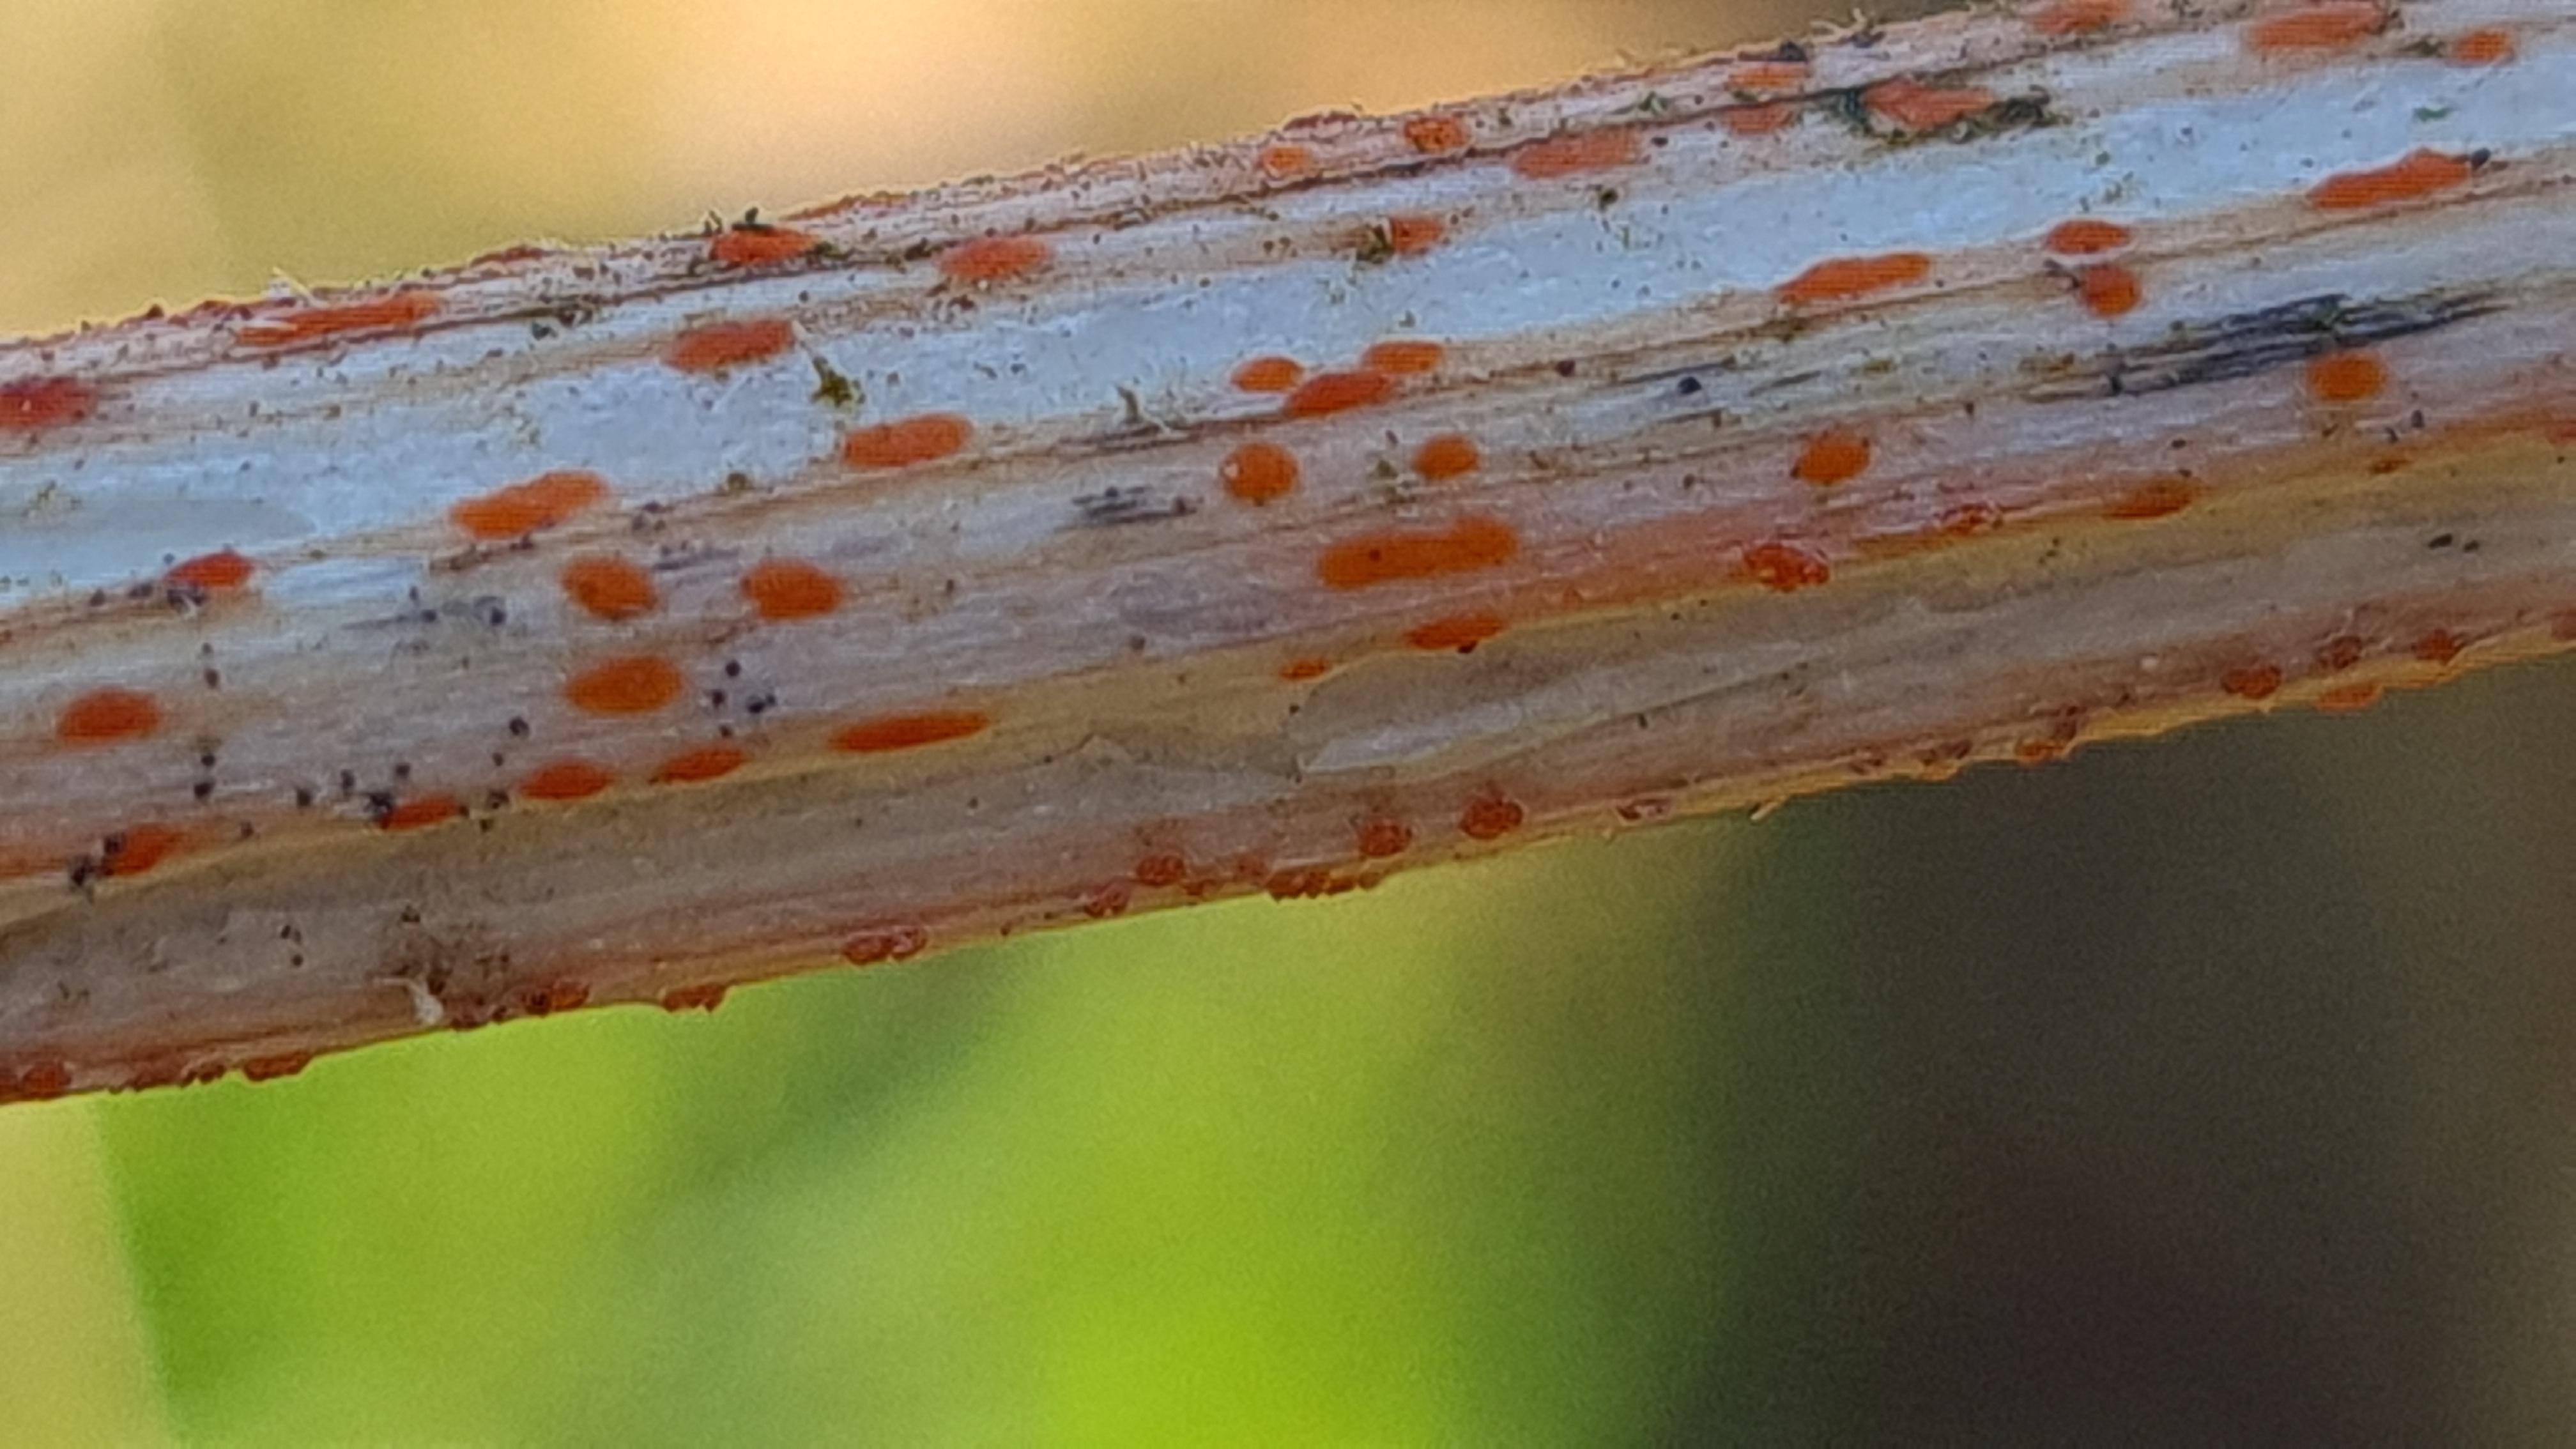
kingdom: Fungi
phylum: Ascomycota
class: Leotiomycetes
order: Helotiales
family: Calloriaceae
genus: Calloria
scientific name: Calloria urticae
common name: nælde-orangeskive
